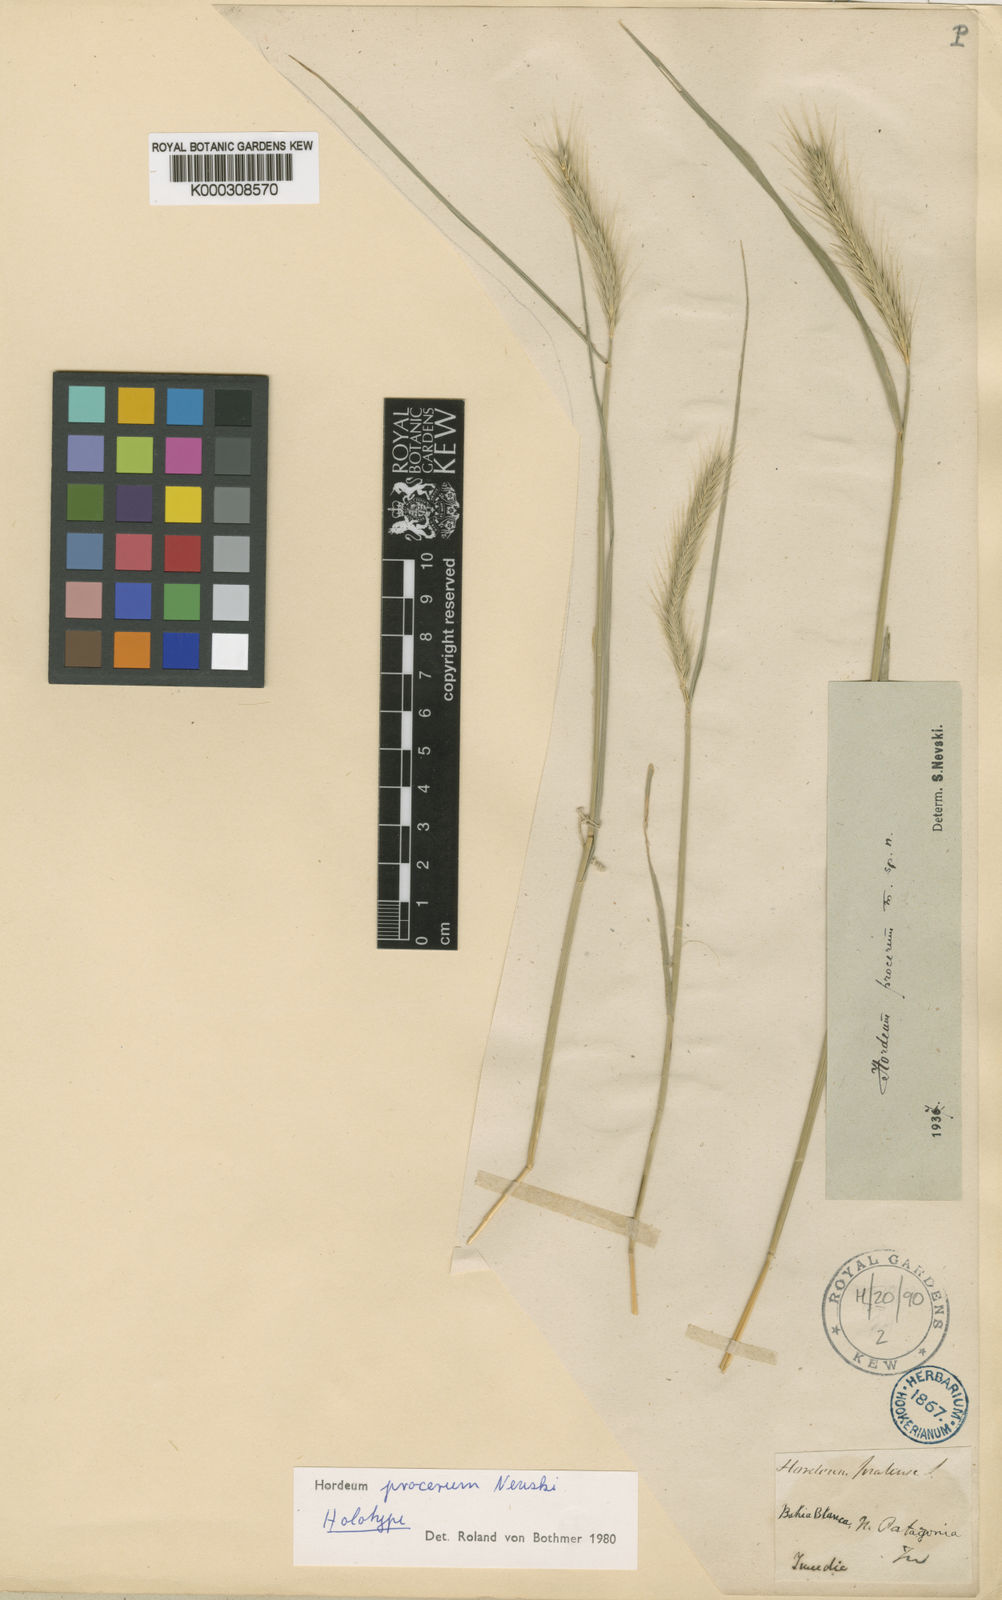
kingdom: Plantae
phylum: Tracheophyta
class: Liliopsida
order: Poales
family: Poaceae
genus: Hordeum
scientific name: Hordeum procerum
